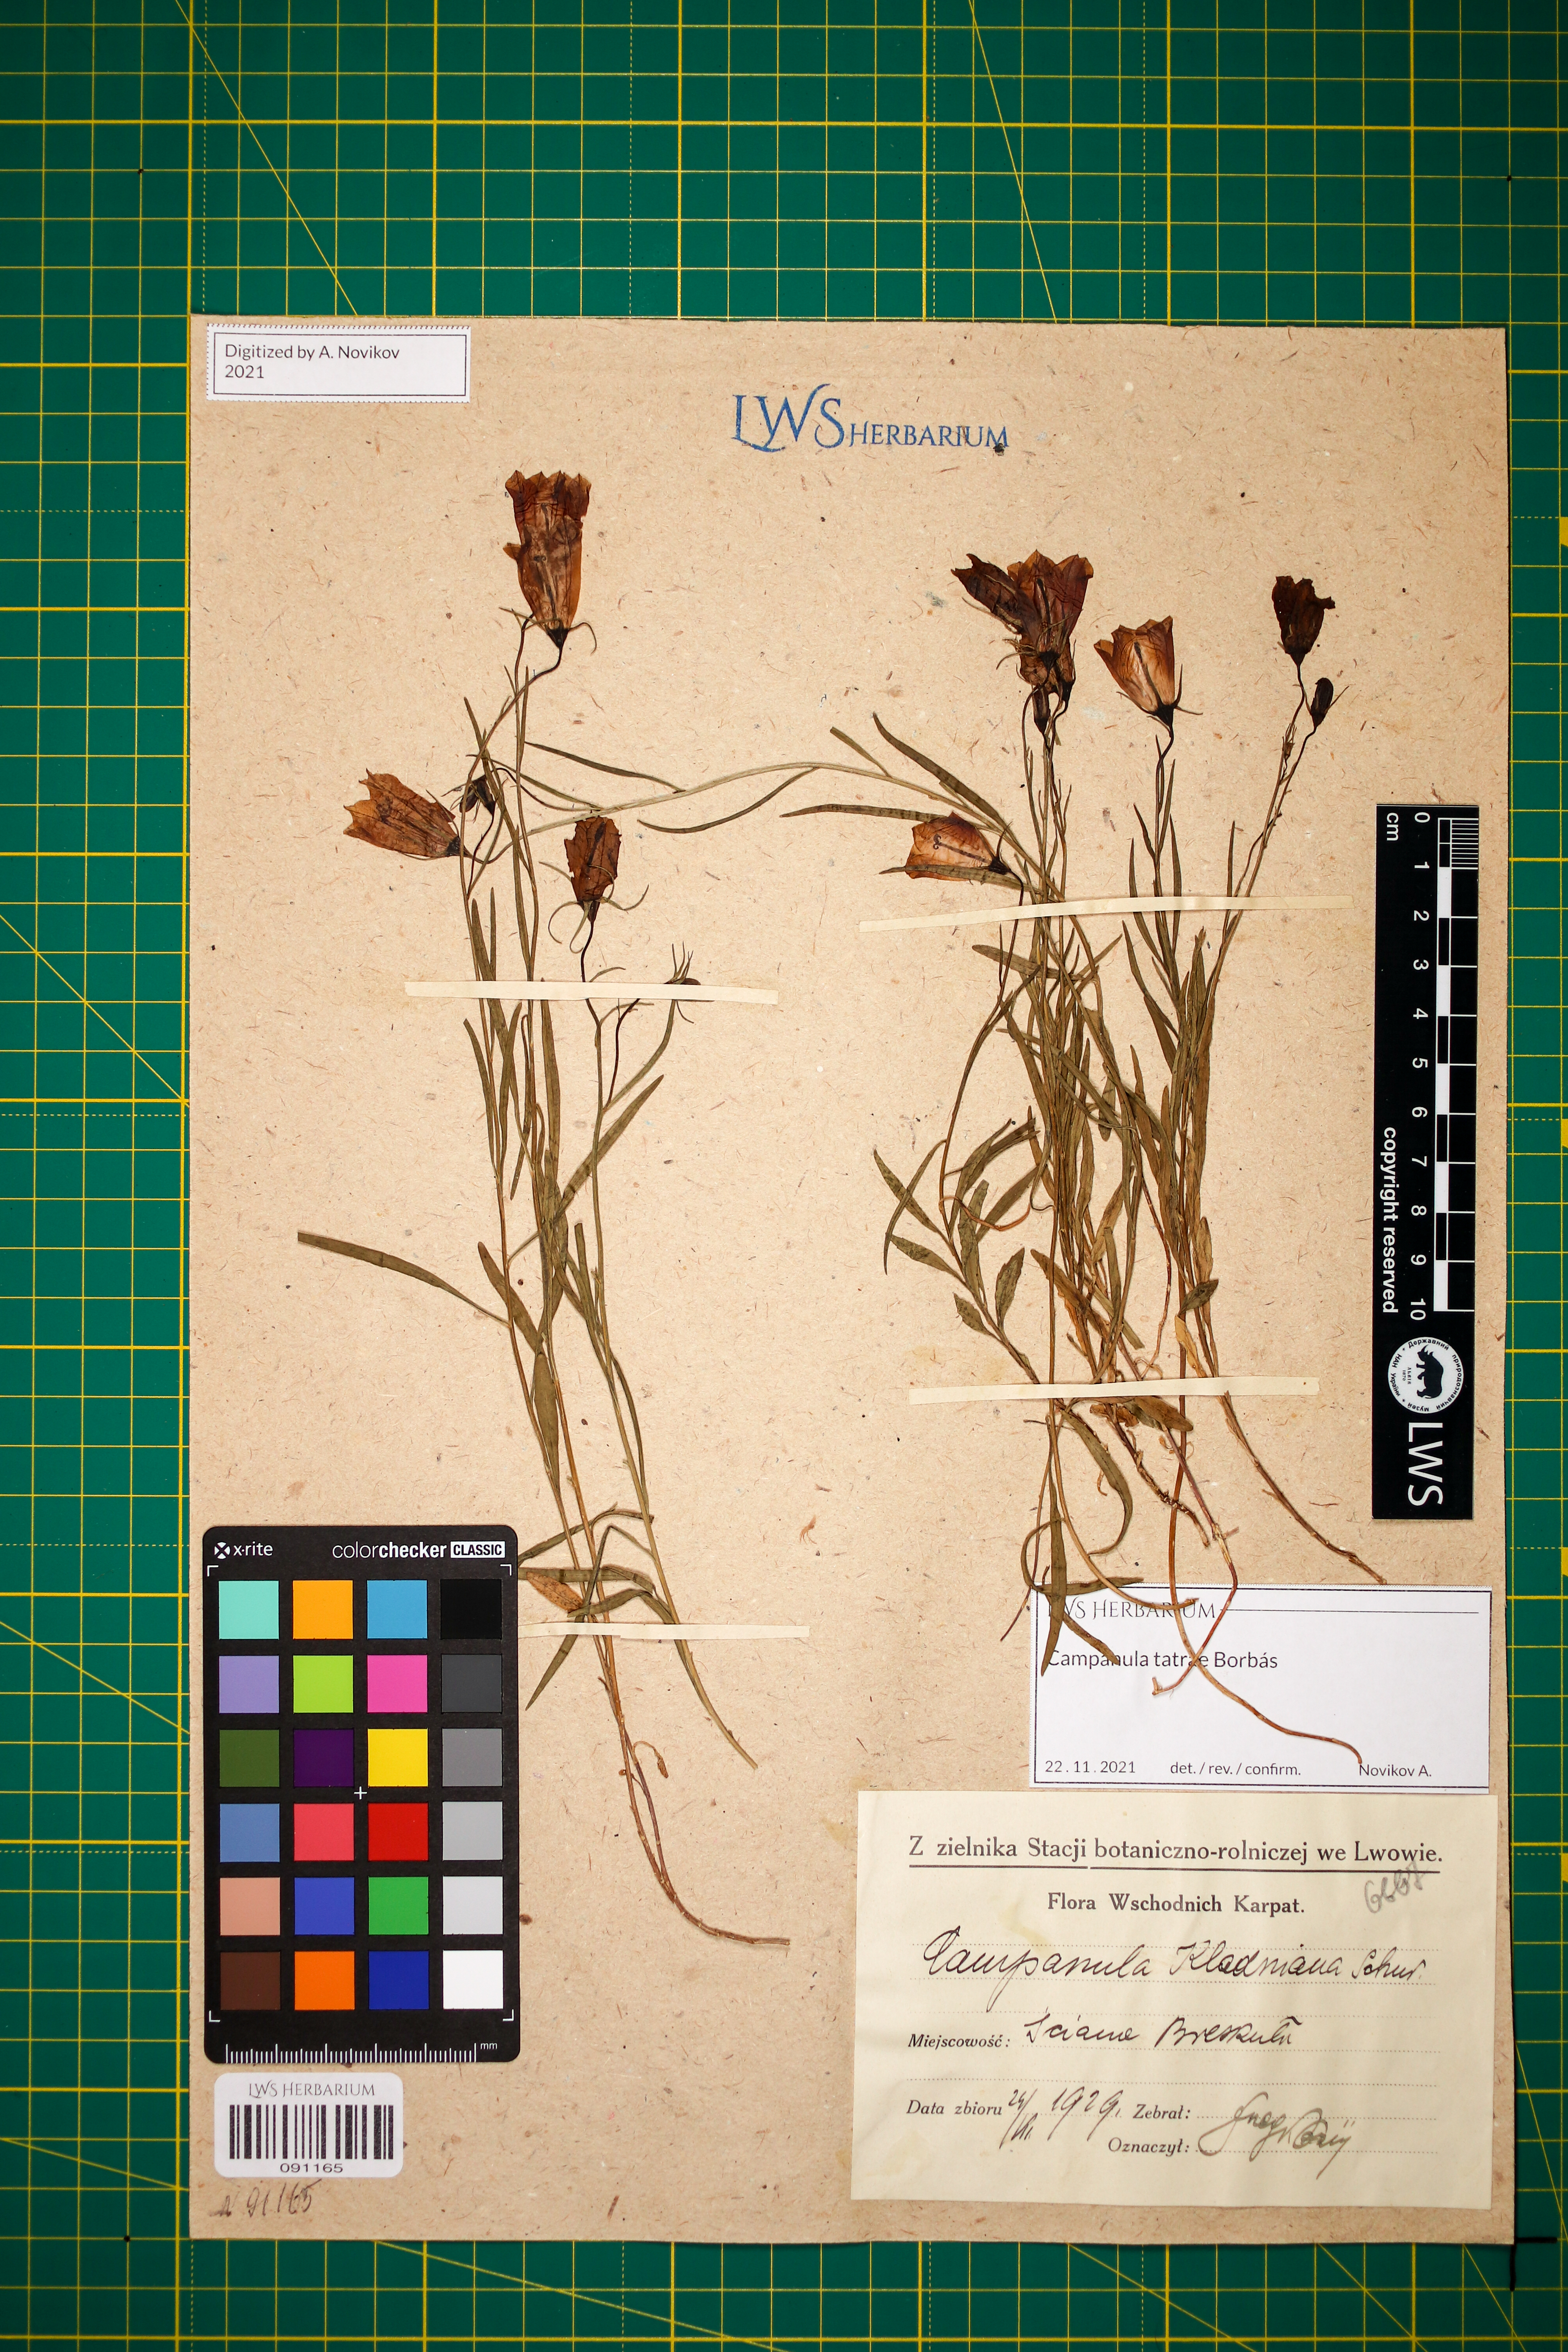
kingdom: Plantae
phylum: Tracheophyta
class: Magnoliopsida
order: Asterales
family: Campanulaceae
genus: Campanula
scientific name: Campanula kladniana
